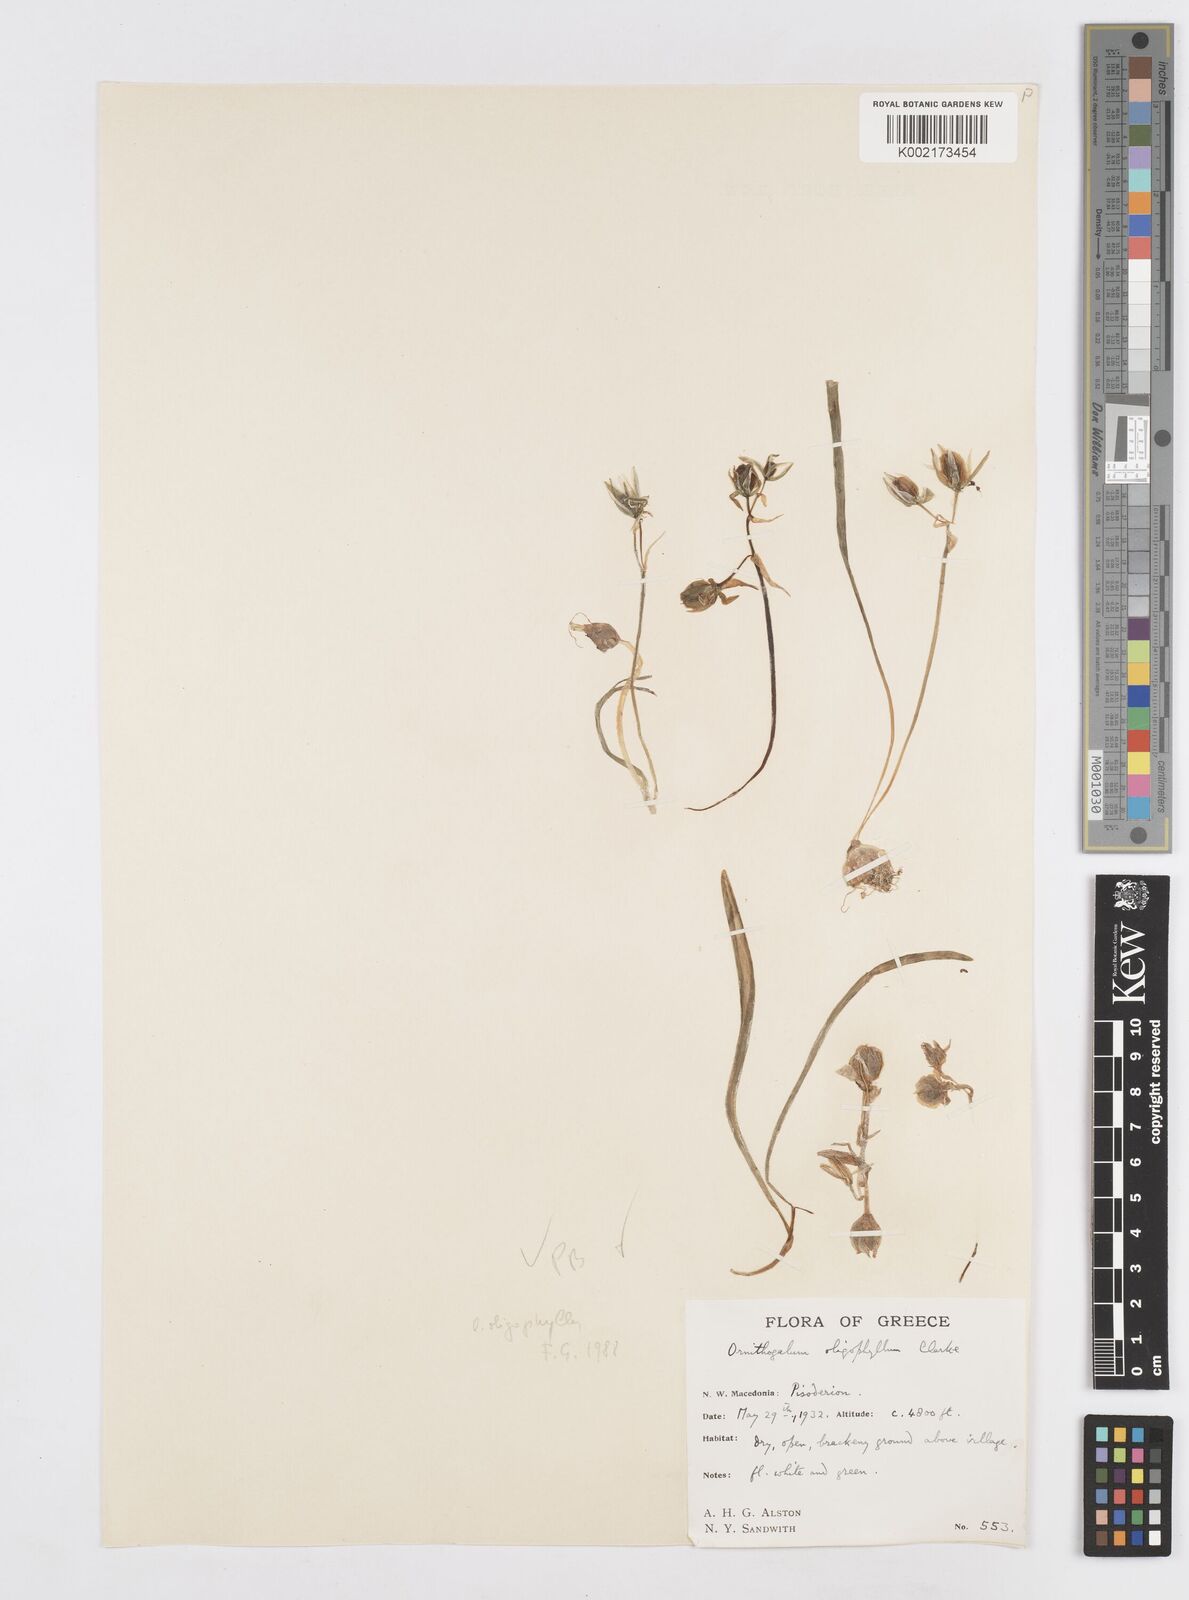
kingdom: Plantae
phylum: Tracheophyta
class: Liliopsida
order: Asparagales
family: Asparagaceae
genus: Ornithogalum
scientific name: Ornithogalum oligophyllum
